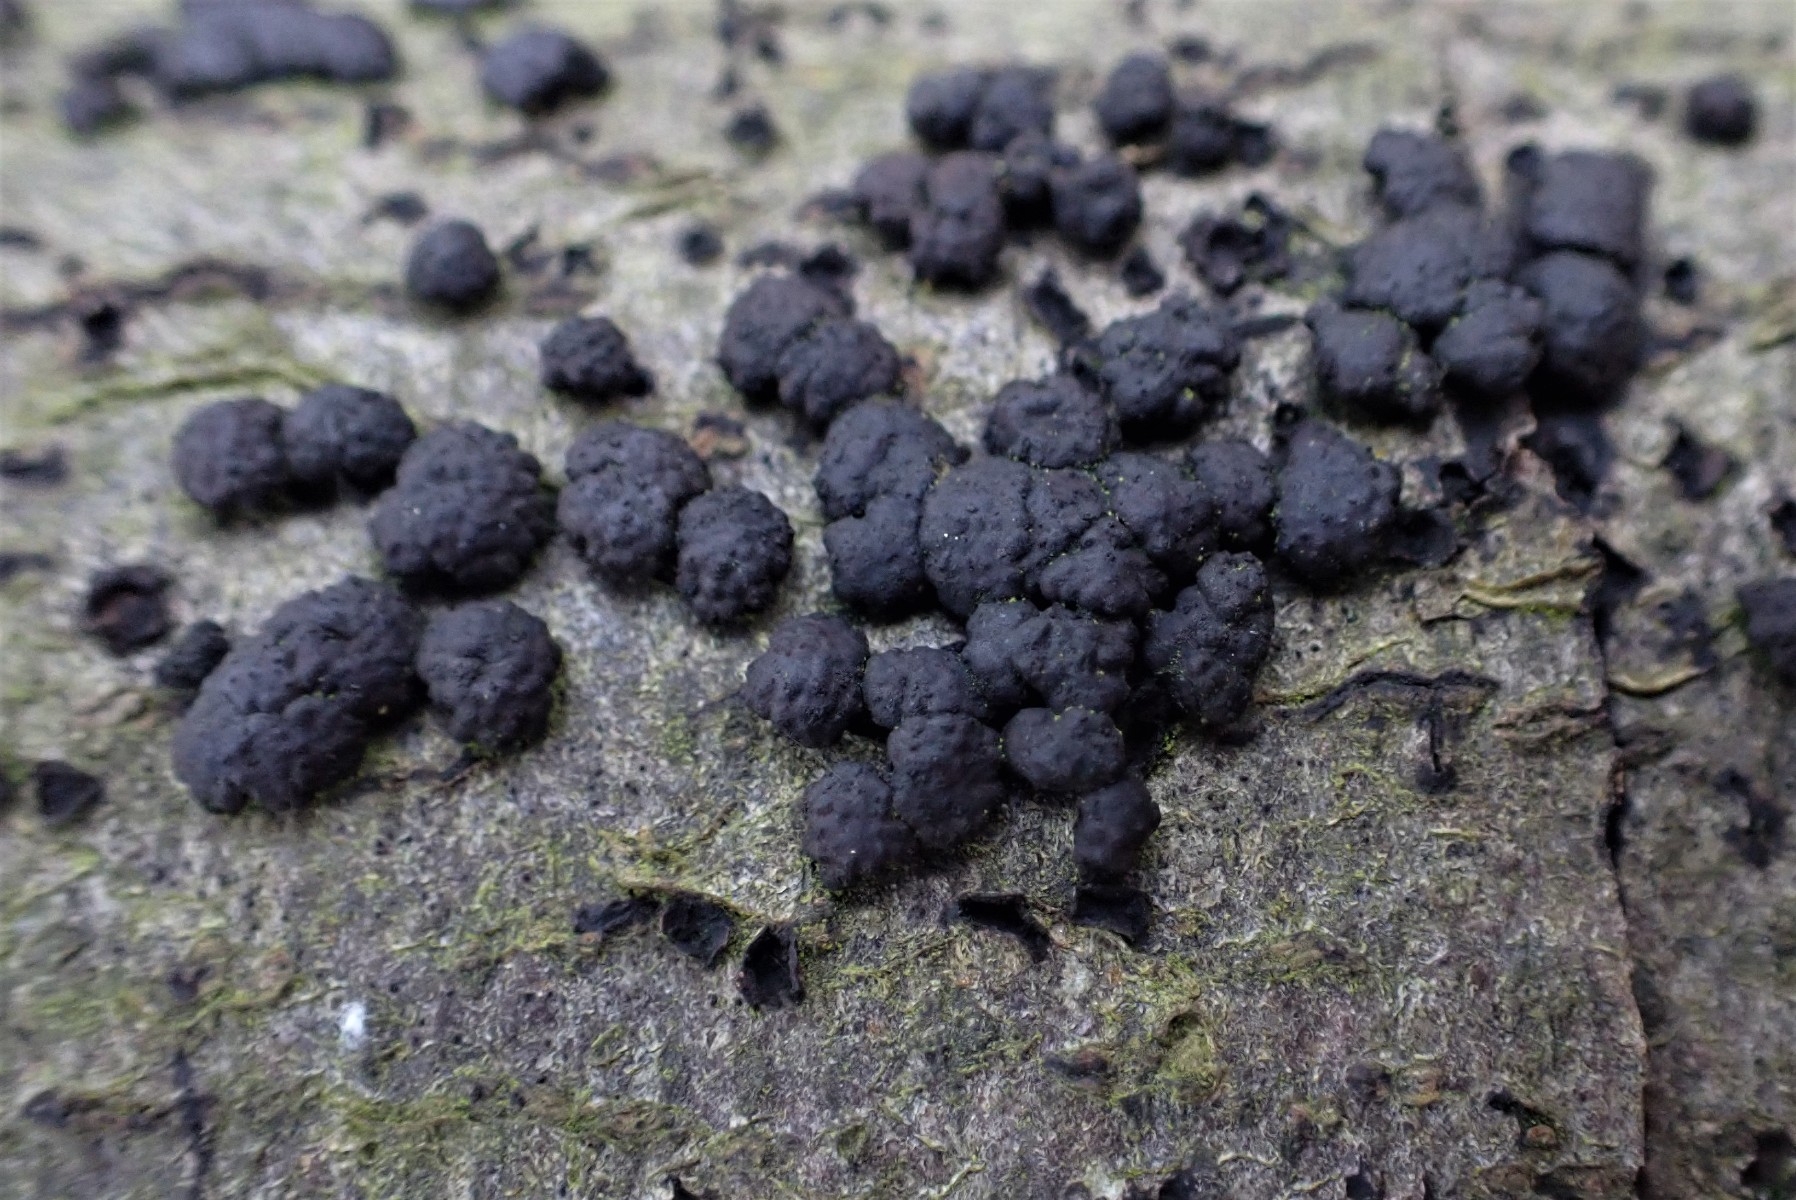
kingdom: Fungi
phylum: Ascomycota
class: Sordariomycetes
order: Xylariales
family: Hypoxylaceae
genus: Jackrogersella
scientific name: Jackrogersella cohaerens
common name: sammenflydende kulbær
